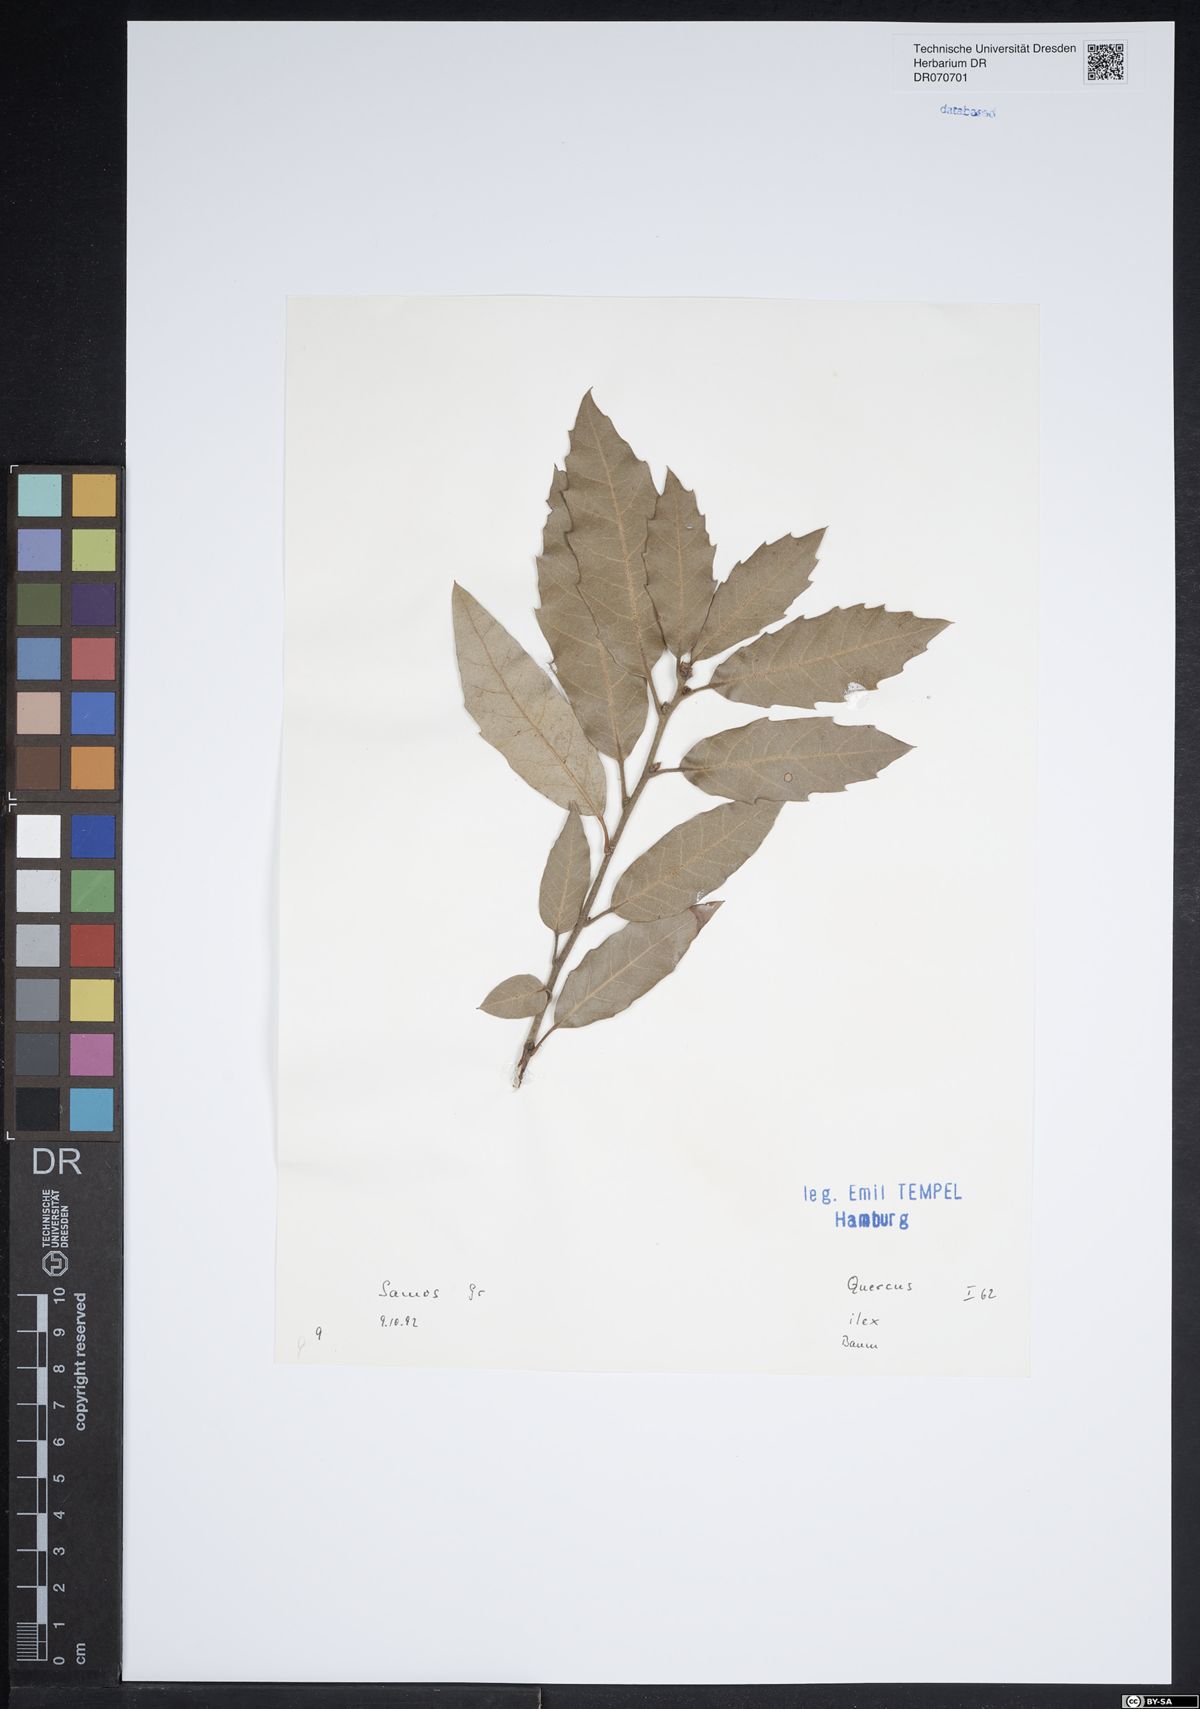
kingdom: Plantae
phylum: Tracheophyta
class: Magnoliopsida
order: Fagales
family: Fagaceae
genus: Quercus
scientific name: Quercus ilex
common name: Evergreen oak
